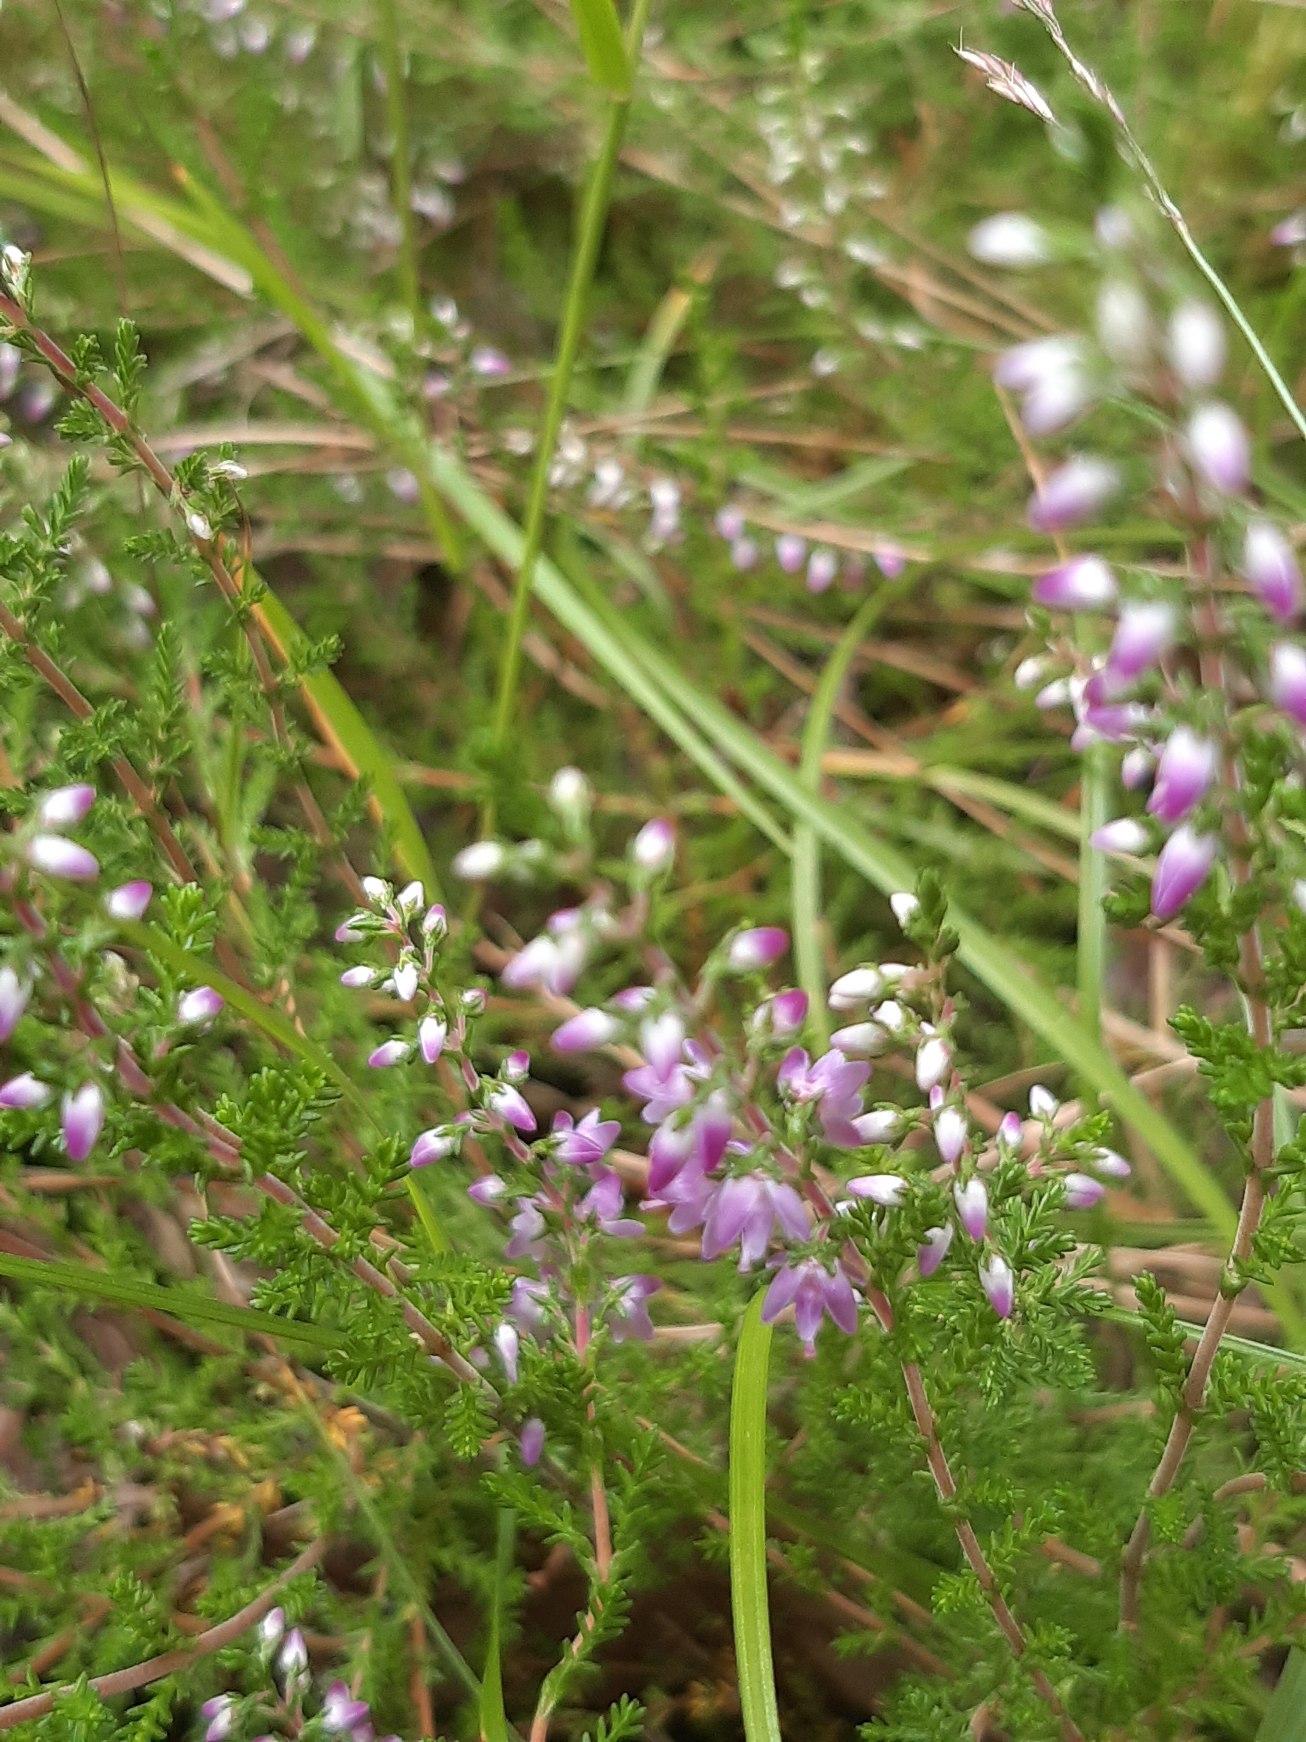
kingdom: Plantae
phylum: Tracheophyta
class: Magnoliopsida
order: Ericales
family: Ericaceae
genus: Calluna
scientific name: Calluna vulgaris
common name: Hedelyng
